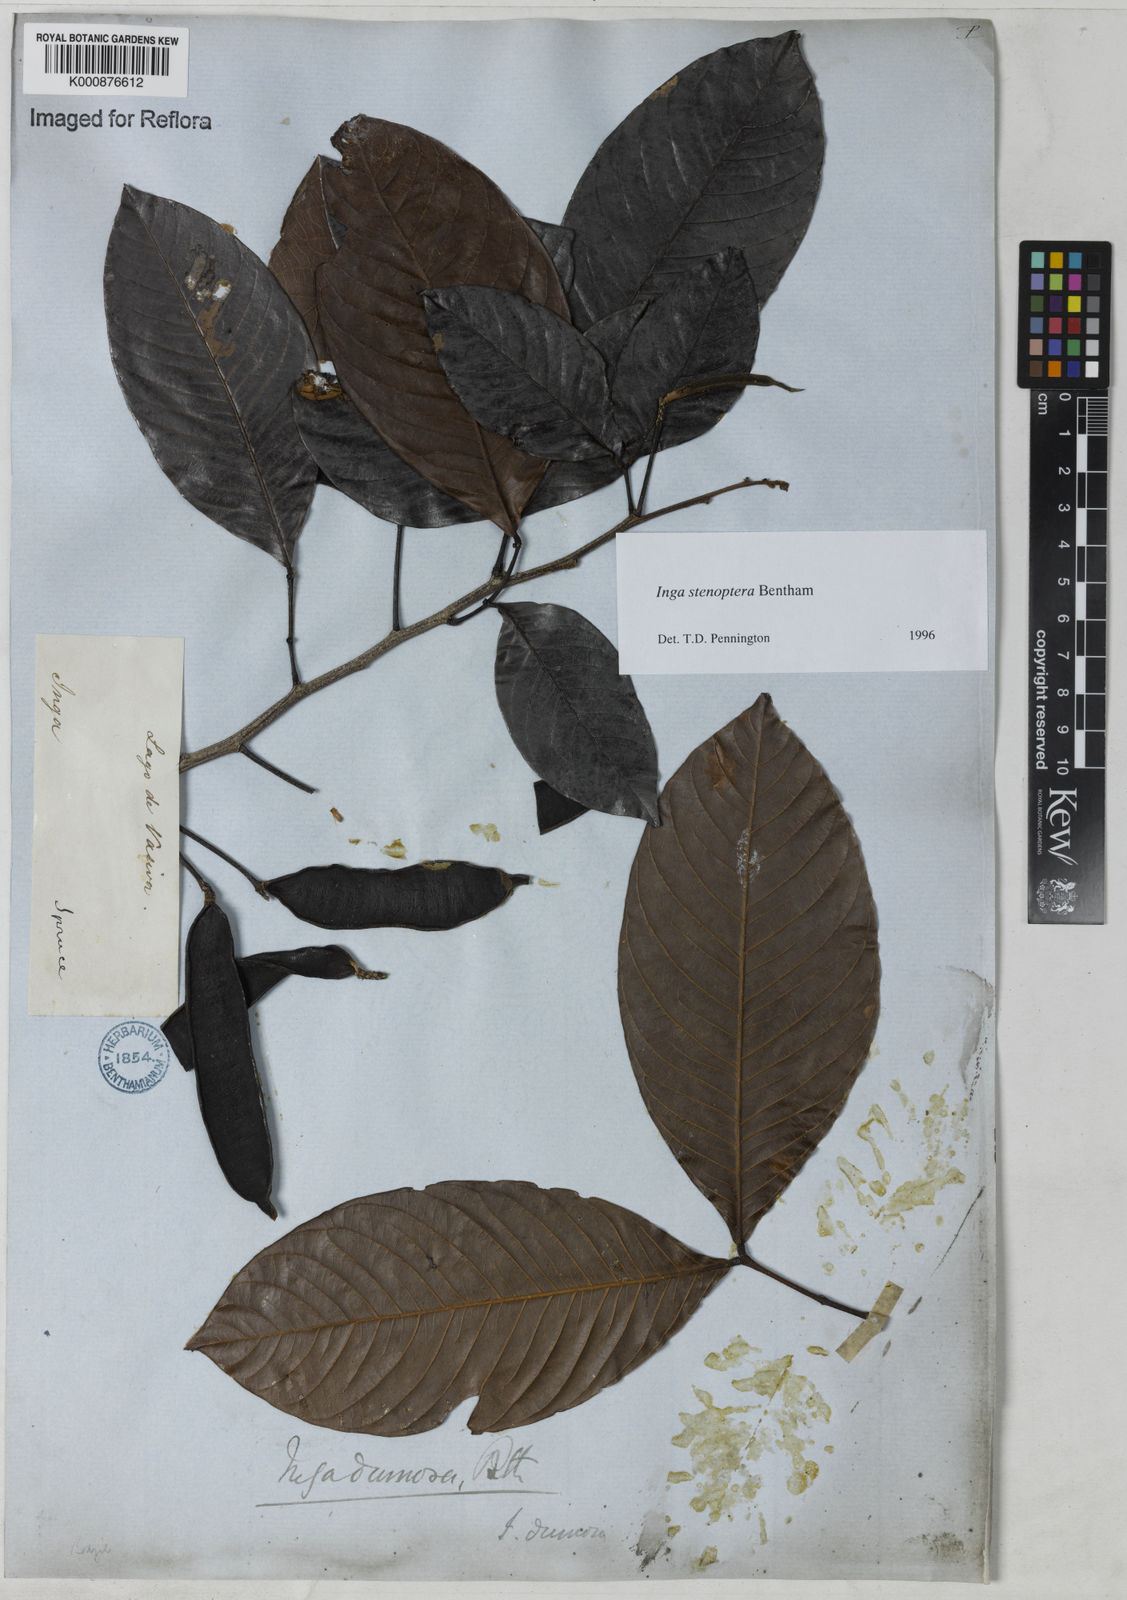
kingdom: Plantae
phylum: Tracheophyta
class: Magnoliopsida
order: Fabales
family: Fabaceae
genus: Inga
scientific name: Inga stenoptera
